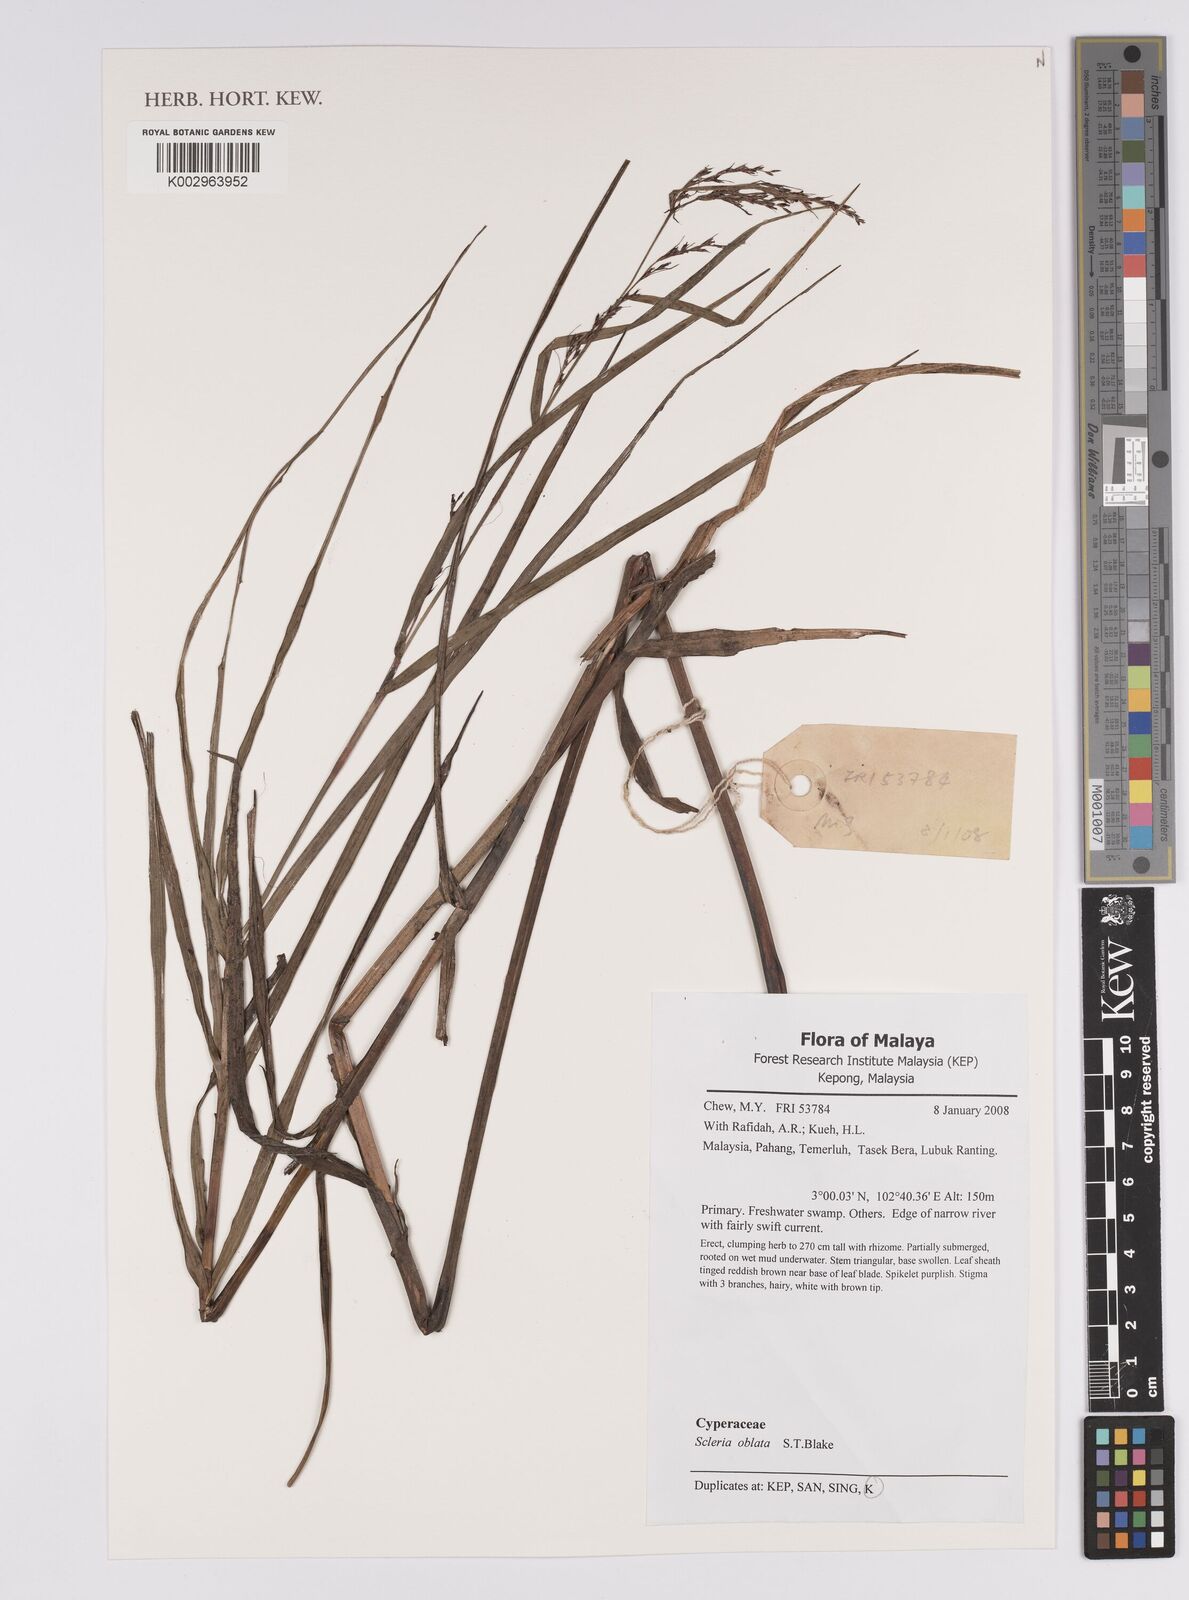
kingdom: Plantae
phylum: Tracheophyta
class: Liliopsida
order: Poales
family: Cyperaceae
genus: Scleria
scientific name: Scleria oblata
